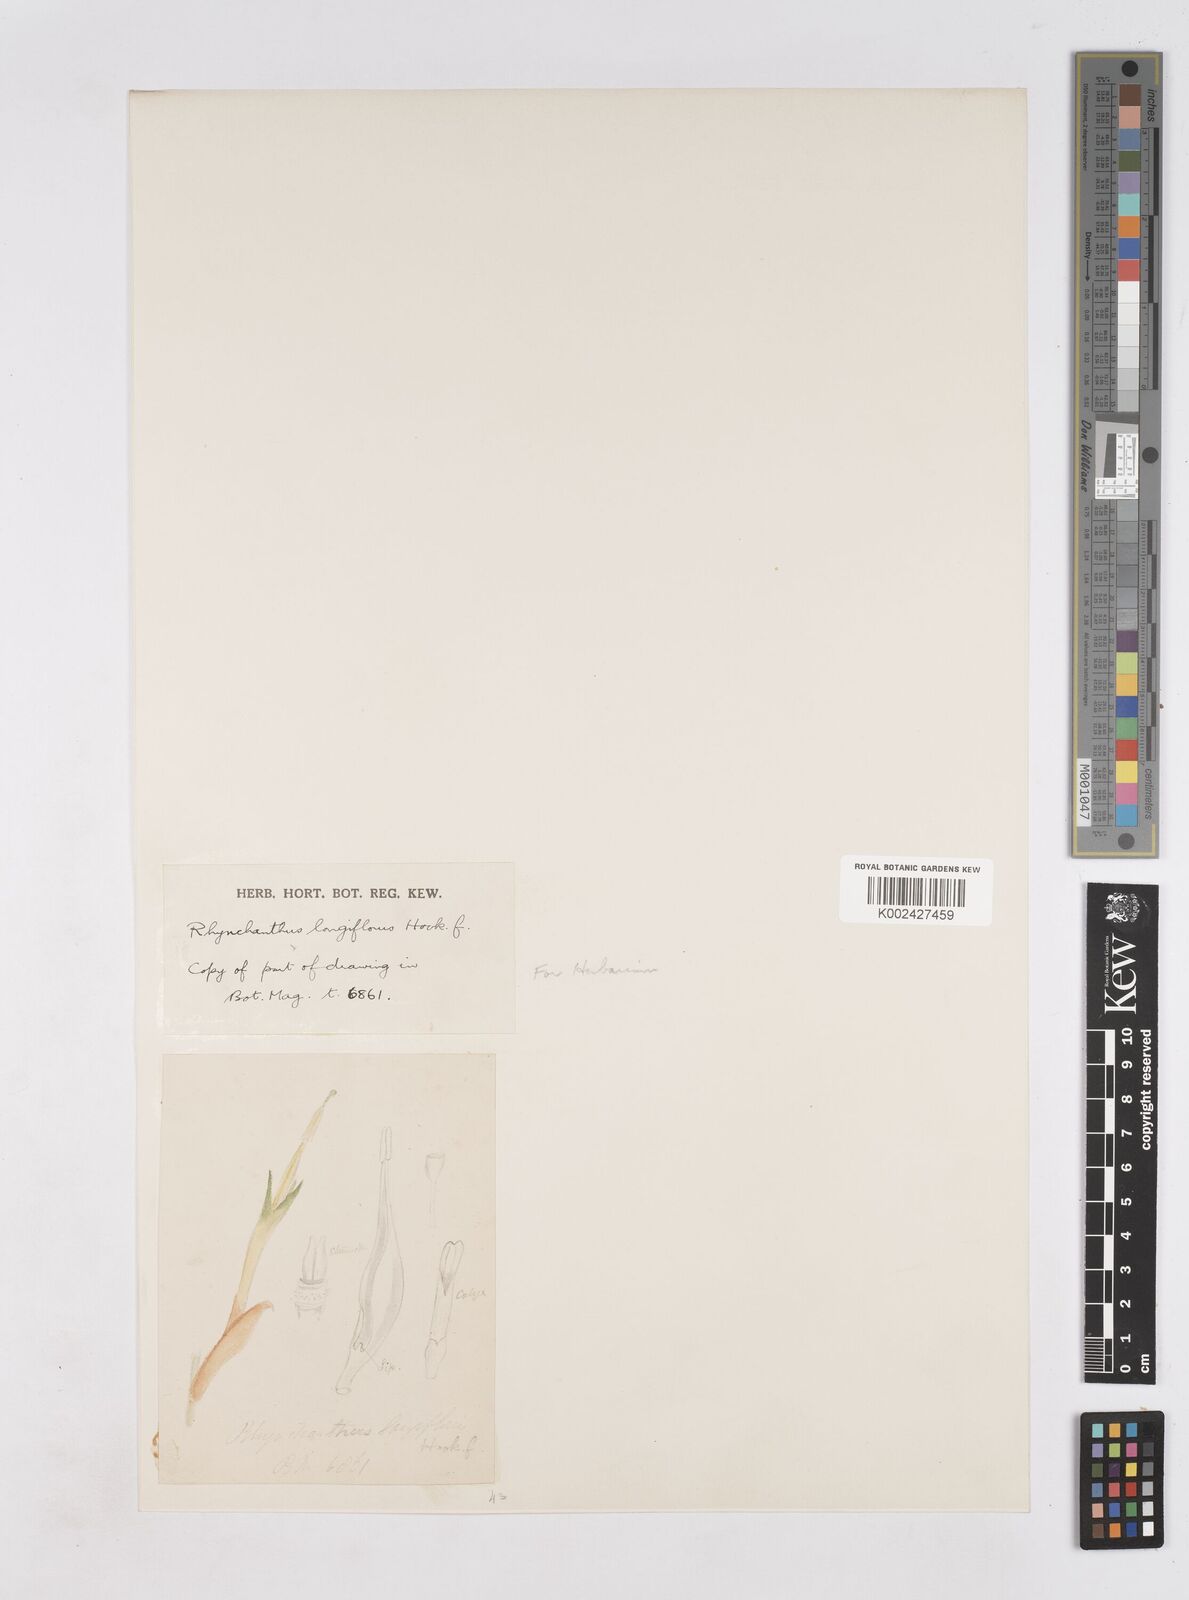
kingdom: Plantae
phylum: Tracheophyta
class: Liliopsida
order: Zingiberales
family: Zingiberaceae
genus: Rhynchanthus
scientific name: Rhynchanthus longiflorus
